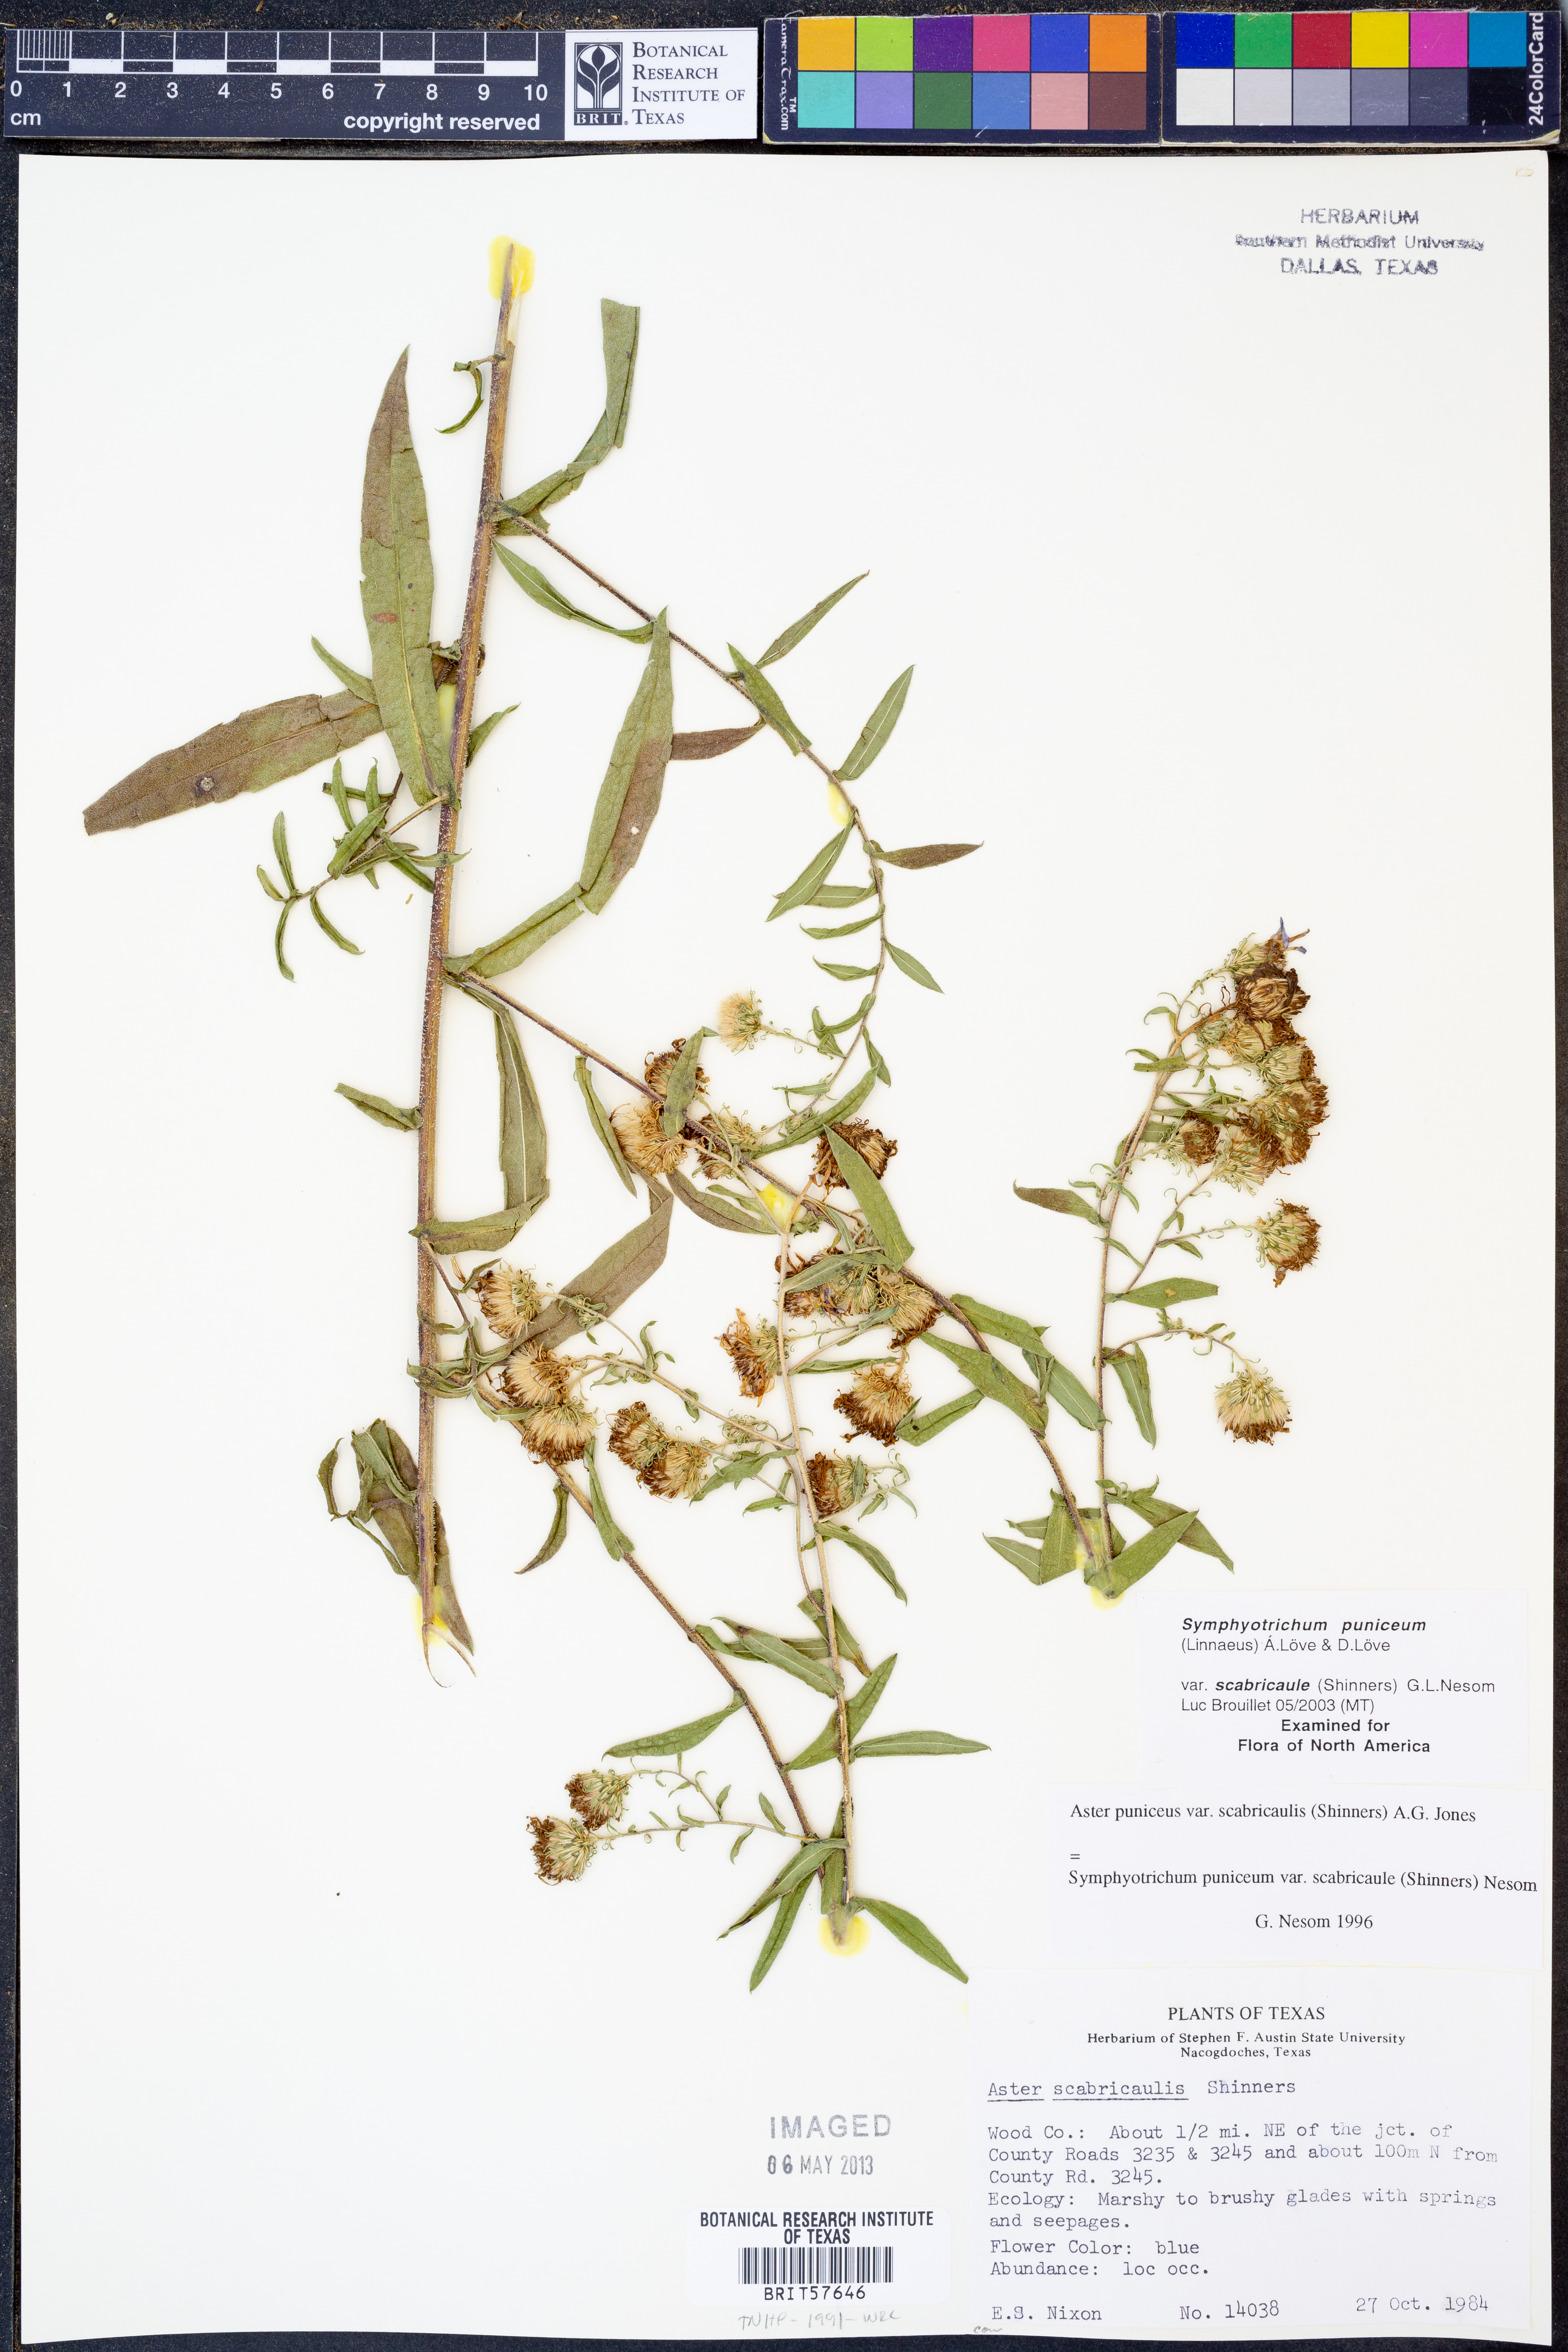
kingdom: Plantae
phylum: Tracheophyta
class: Magnoliopsida
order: Asterales
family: Asteraceae
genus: Symphyotrichum
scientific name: Symphyotrichum puniceum
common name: Bog aster
